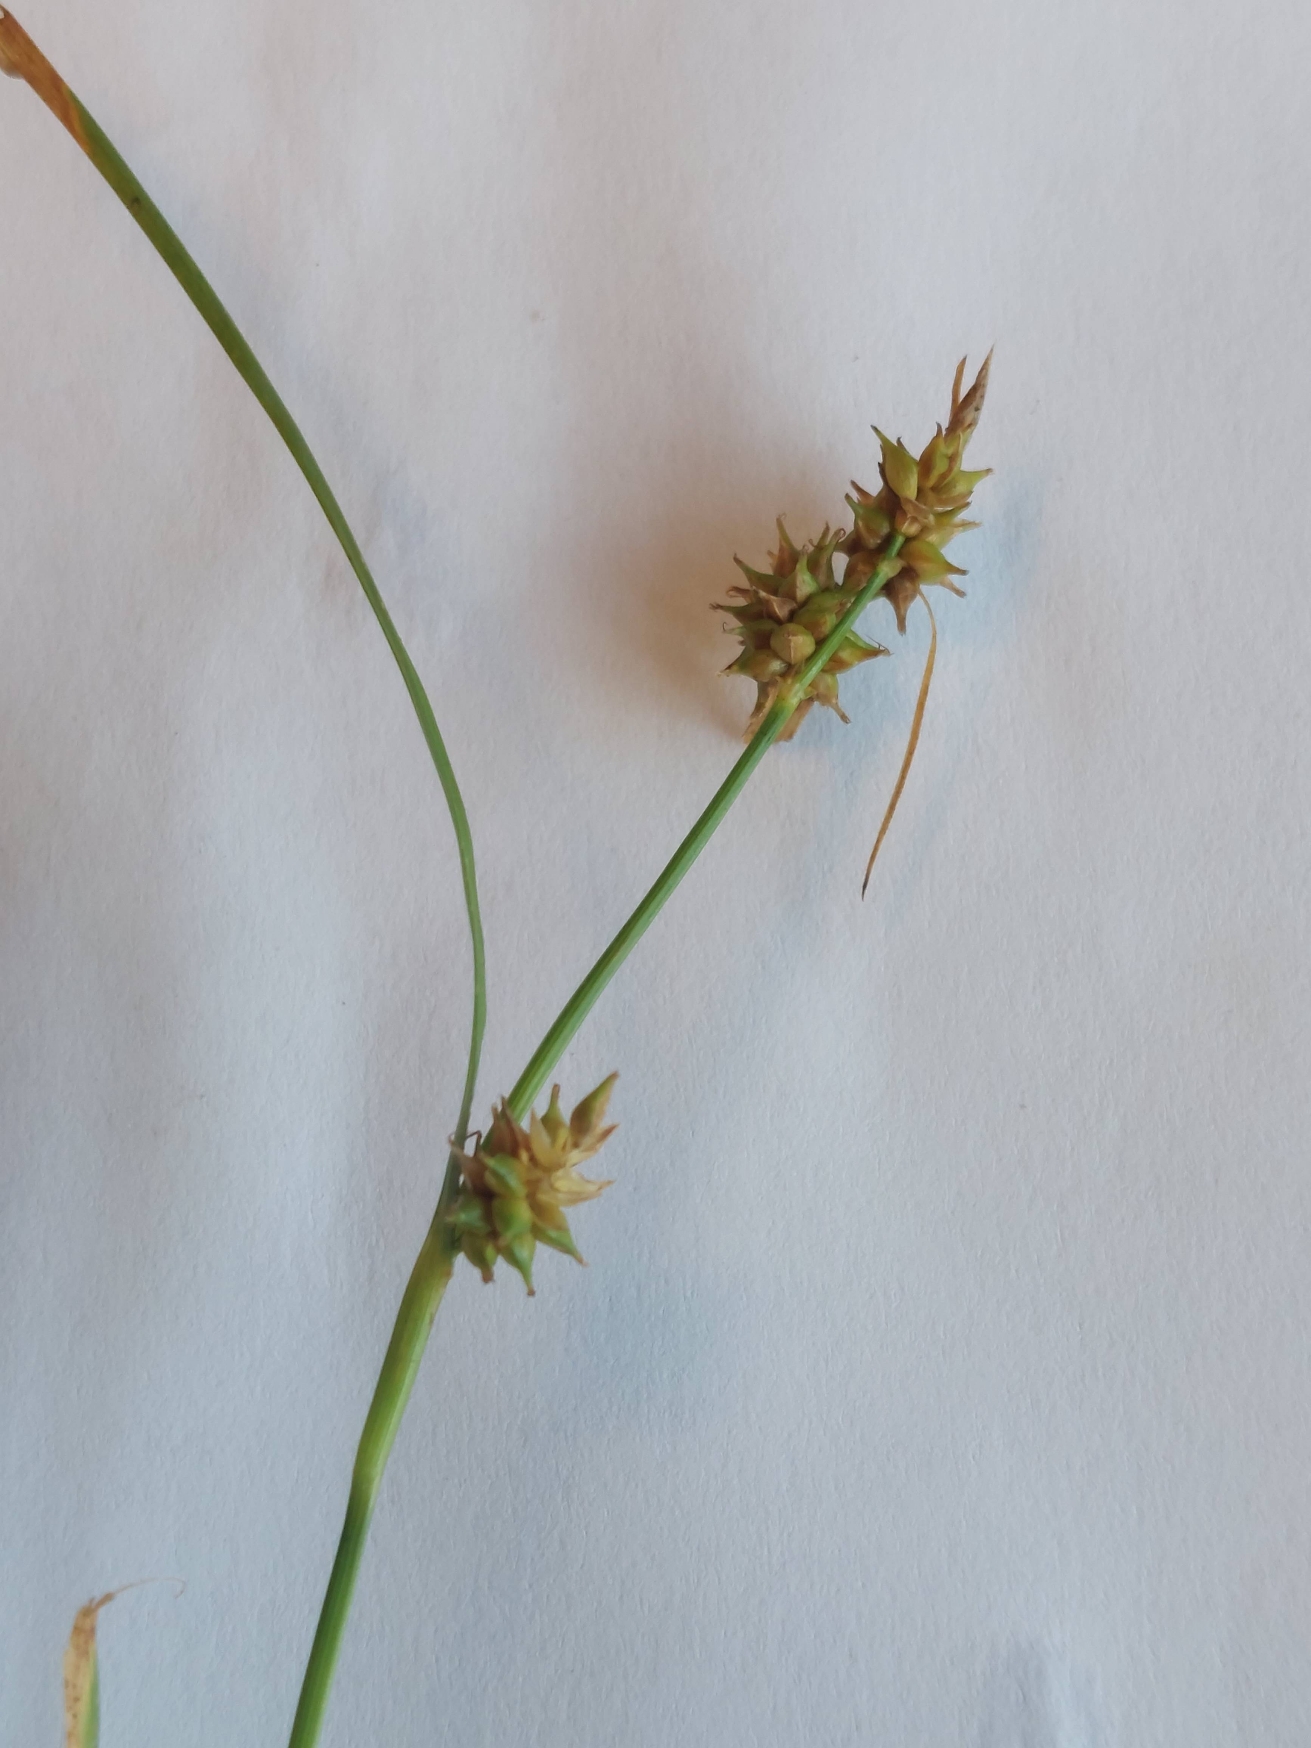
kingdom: Plantae
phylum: Tracheophyta
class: Liliopsida
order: Poales
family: Cyperaceae
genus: Carex
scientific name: Carex demissa
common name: Grøn star
